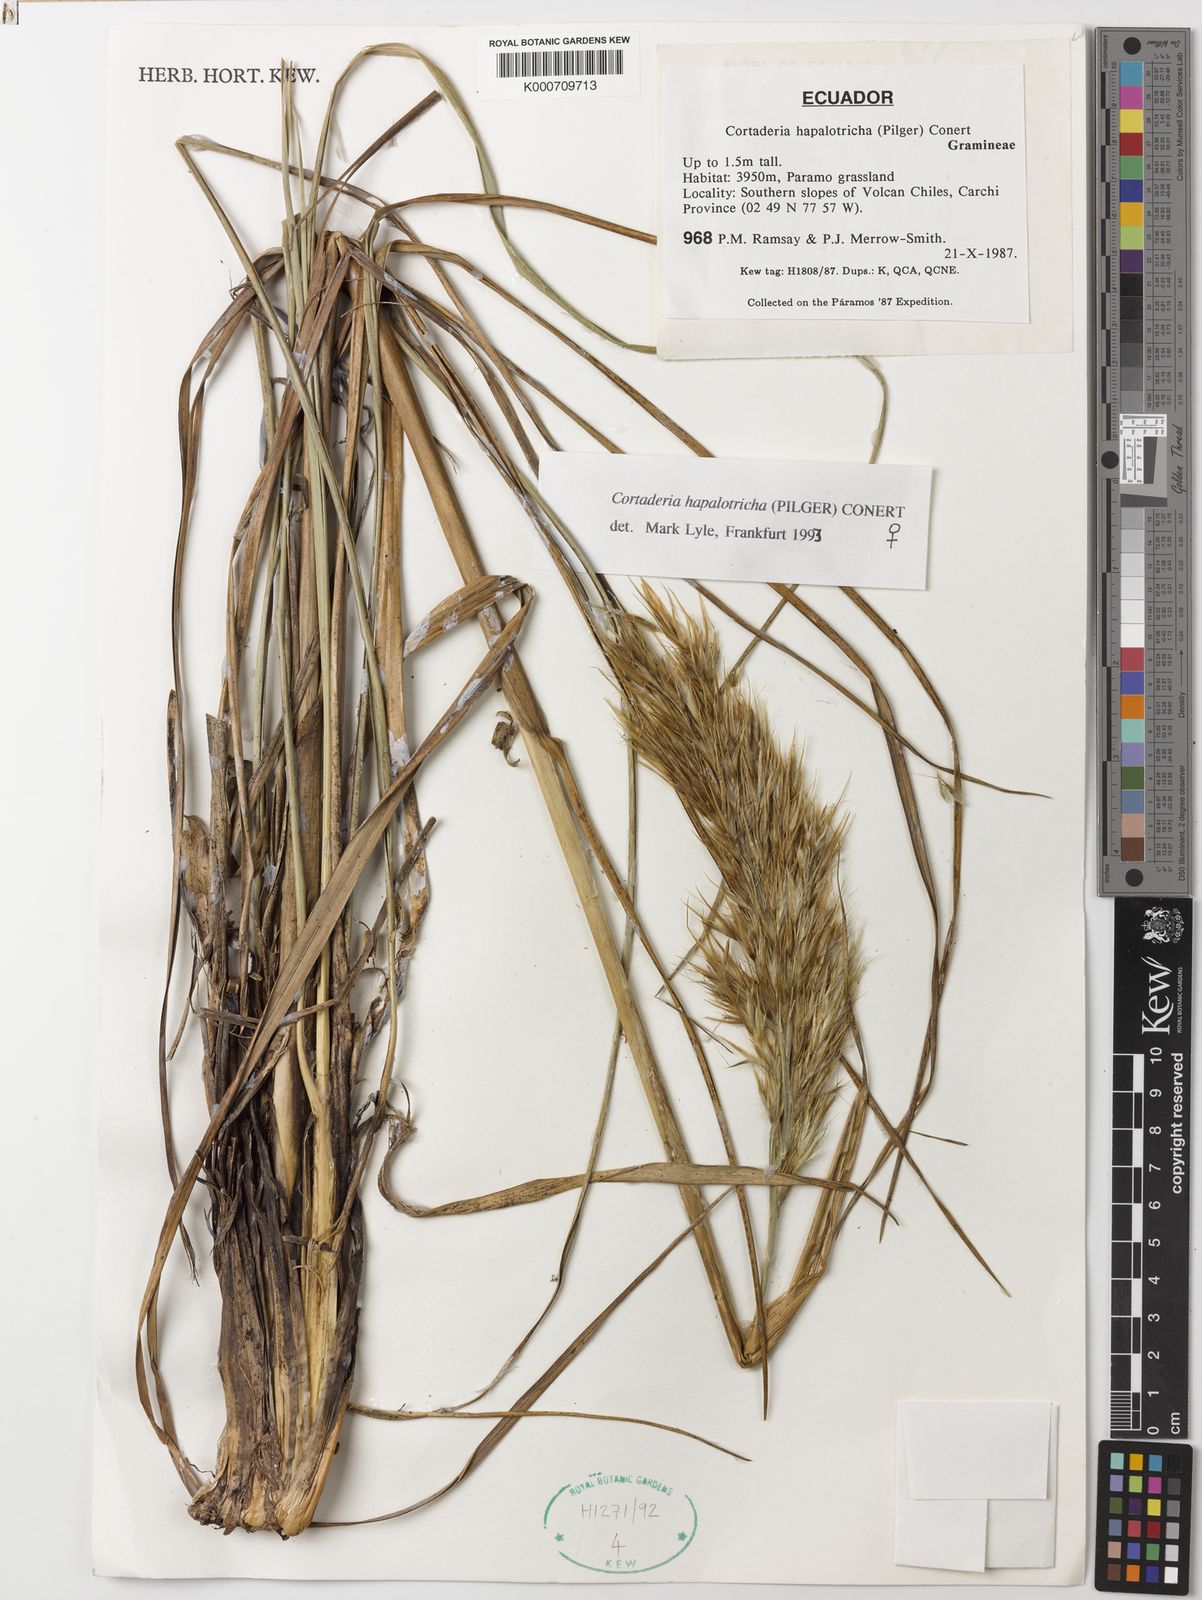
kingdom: Plantae
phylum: Tracheophyta
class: Liliopsida
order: Poales
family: Poaceae
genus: Cortaderia
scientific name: Cortaderia hapalotricha
